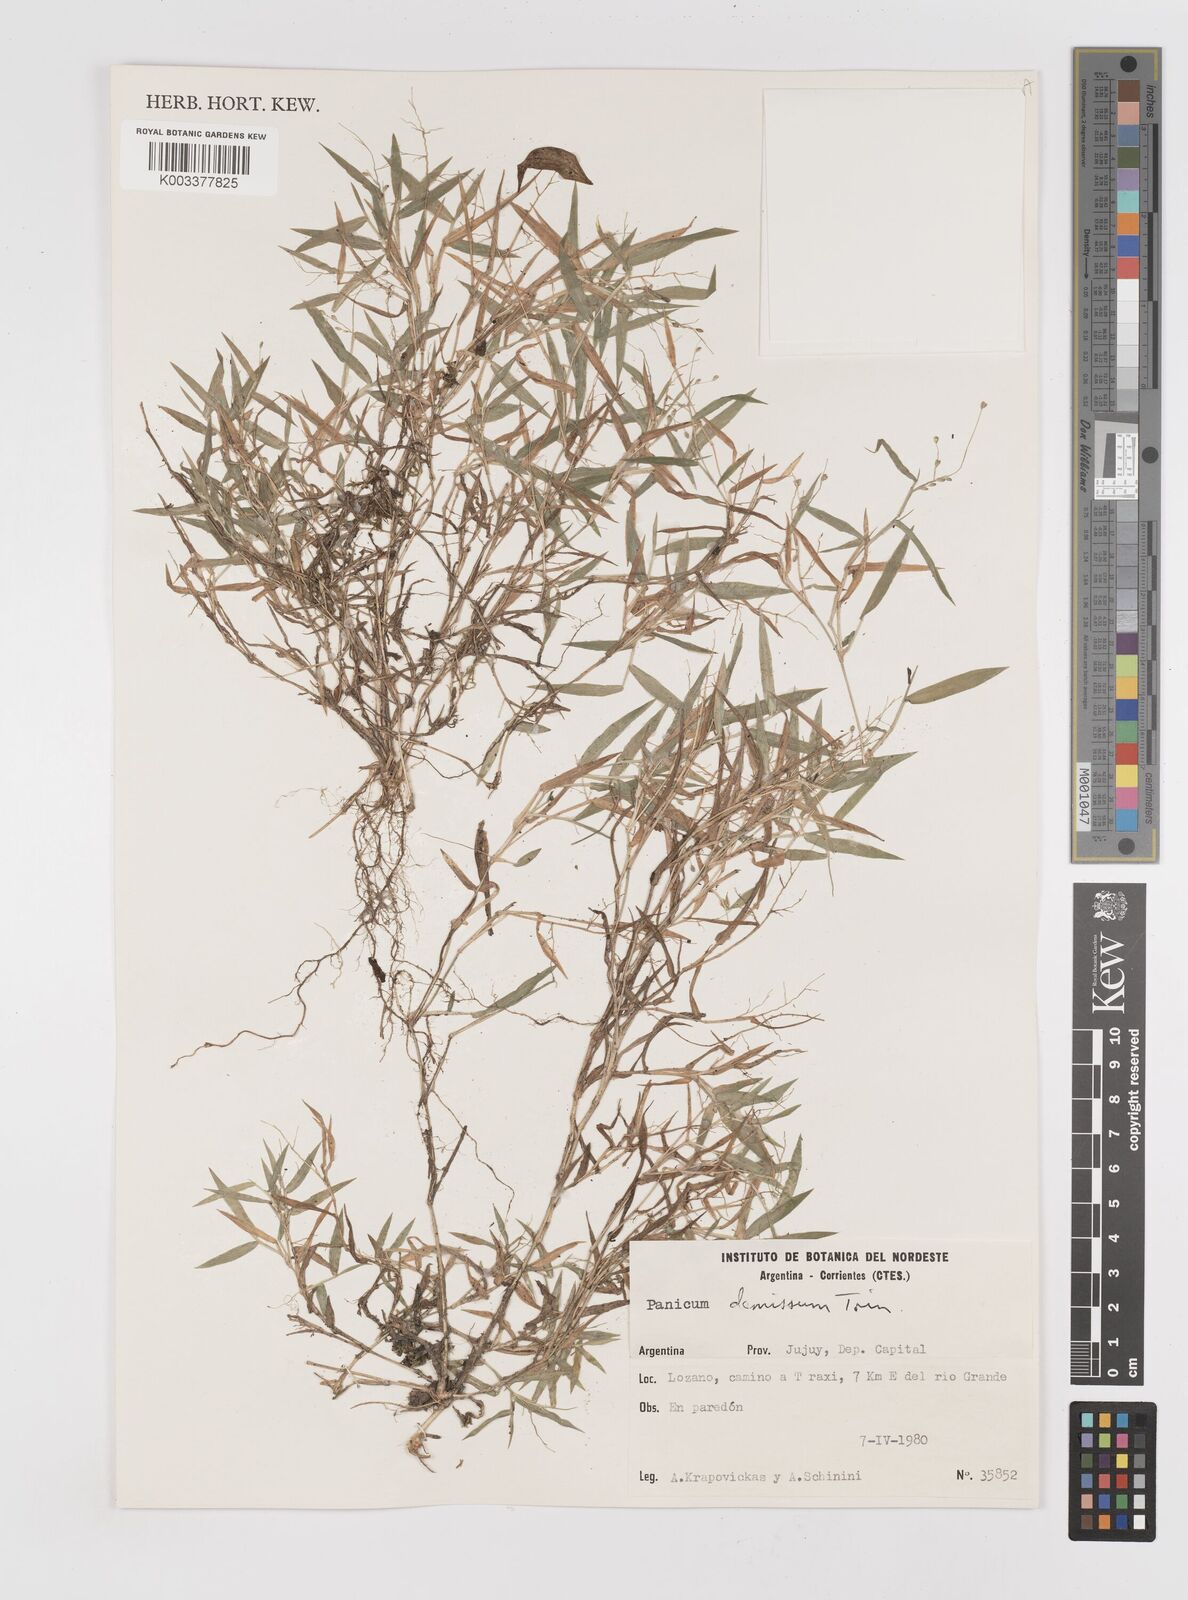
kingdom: Plantae
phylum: Tracheophyta
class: Liliopsida
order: Poales
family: Poaceae
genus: Dichanthelium
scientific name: Dichanthelium sabulorum
